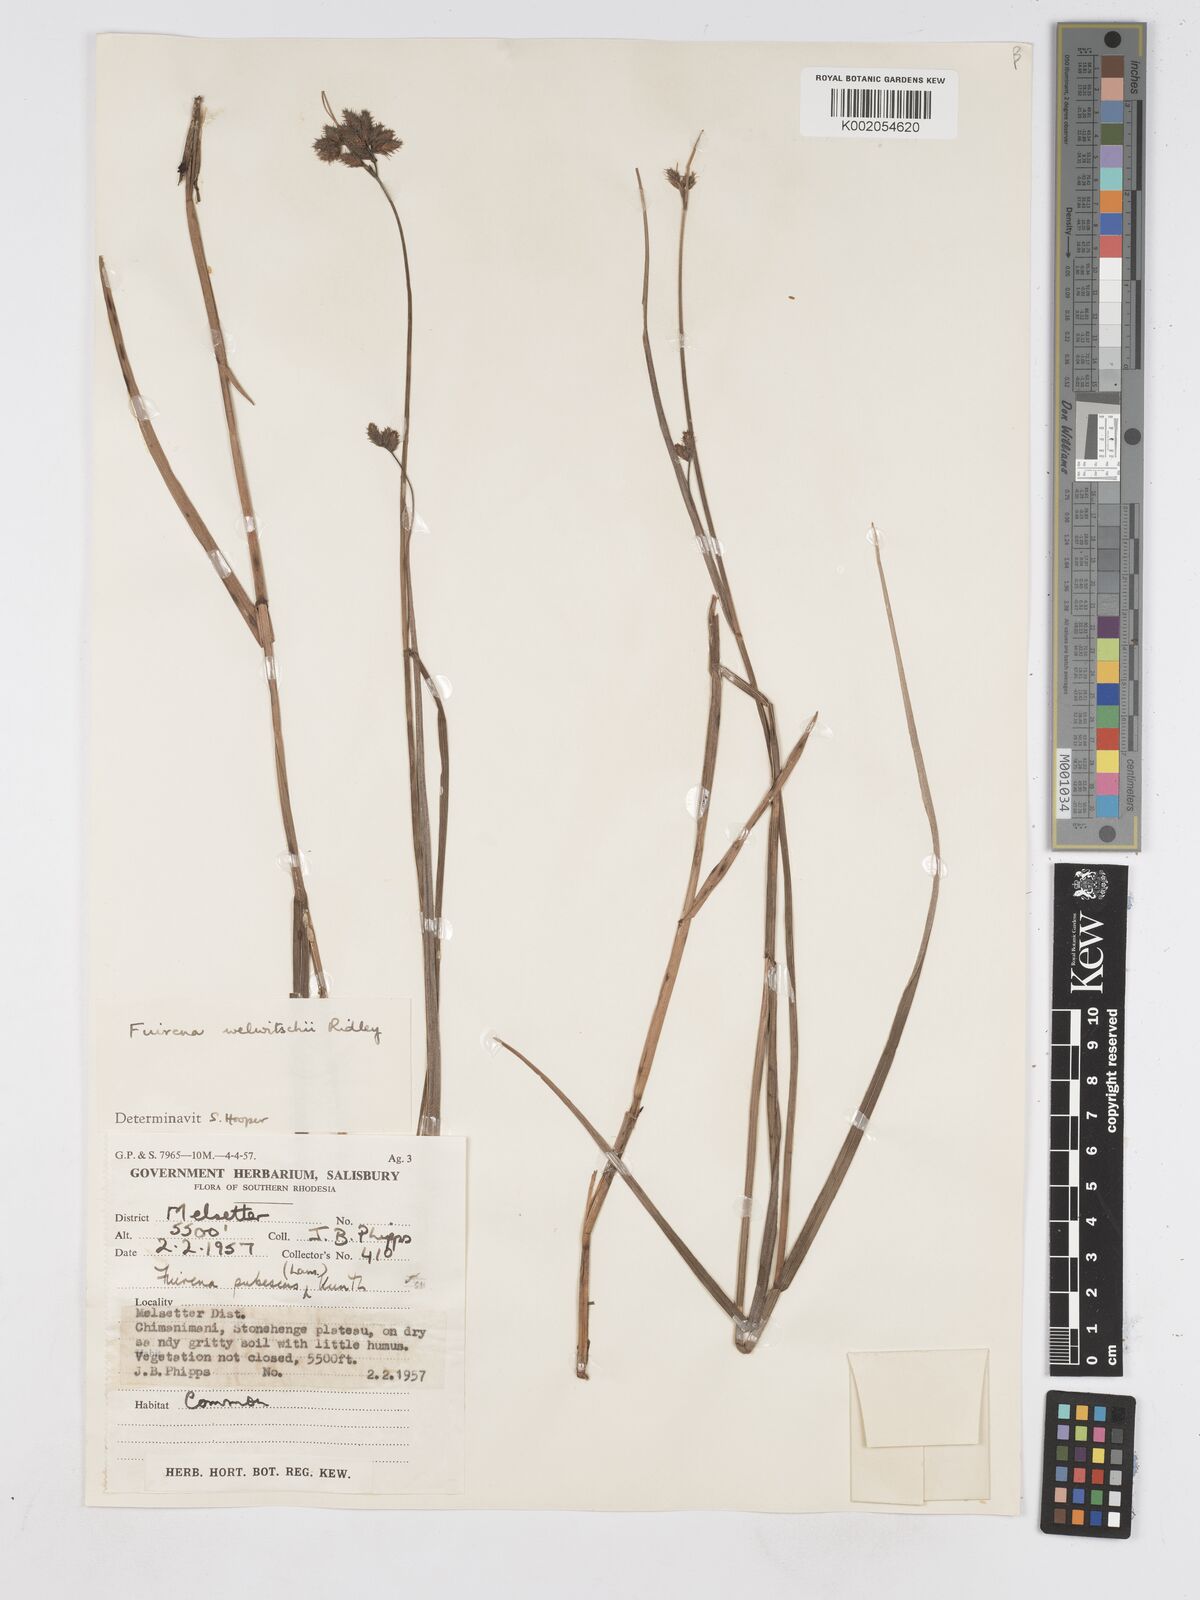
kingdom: Plantae
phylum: Tracheophyta
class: Liliopsida
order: Poales
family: Cyperaceae
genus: Fuirena
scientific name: Fuirena welwitschii
